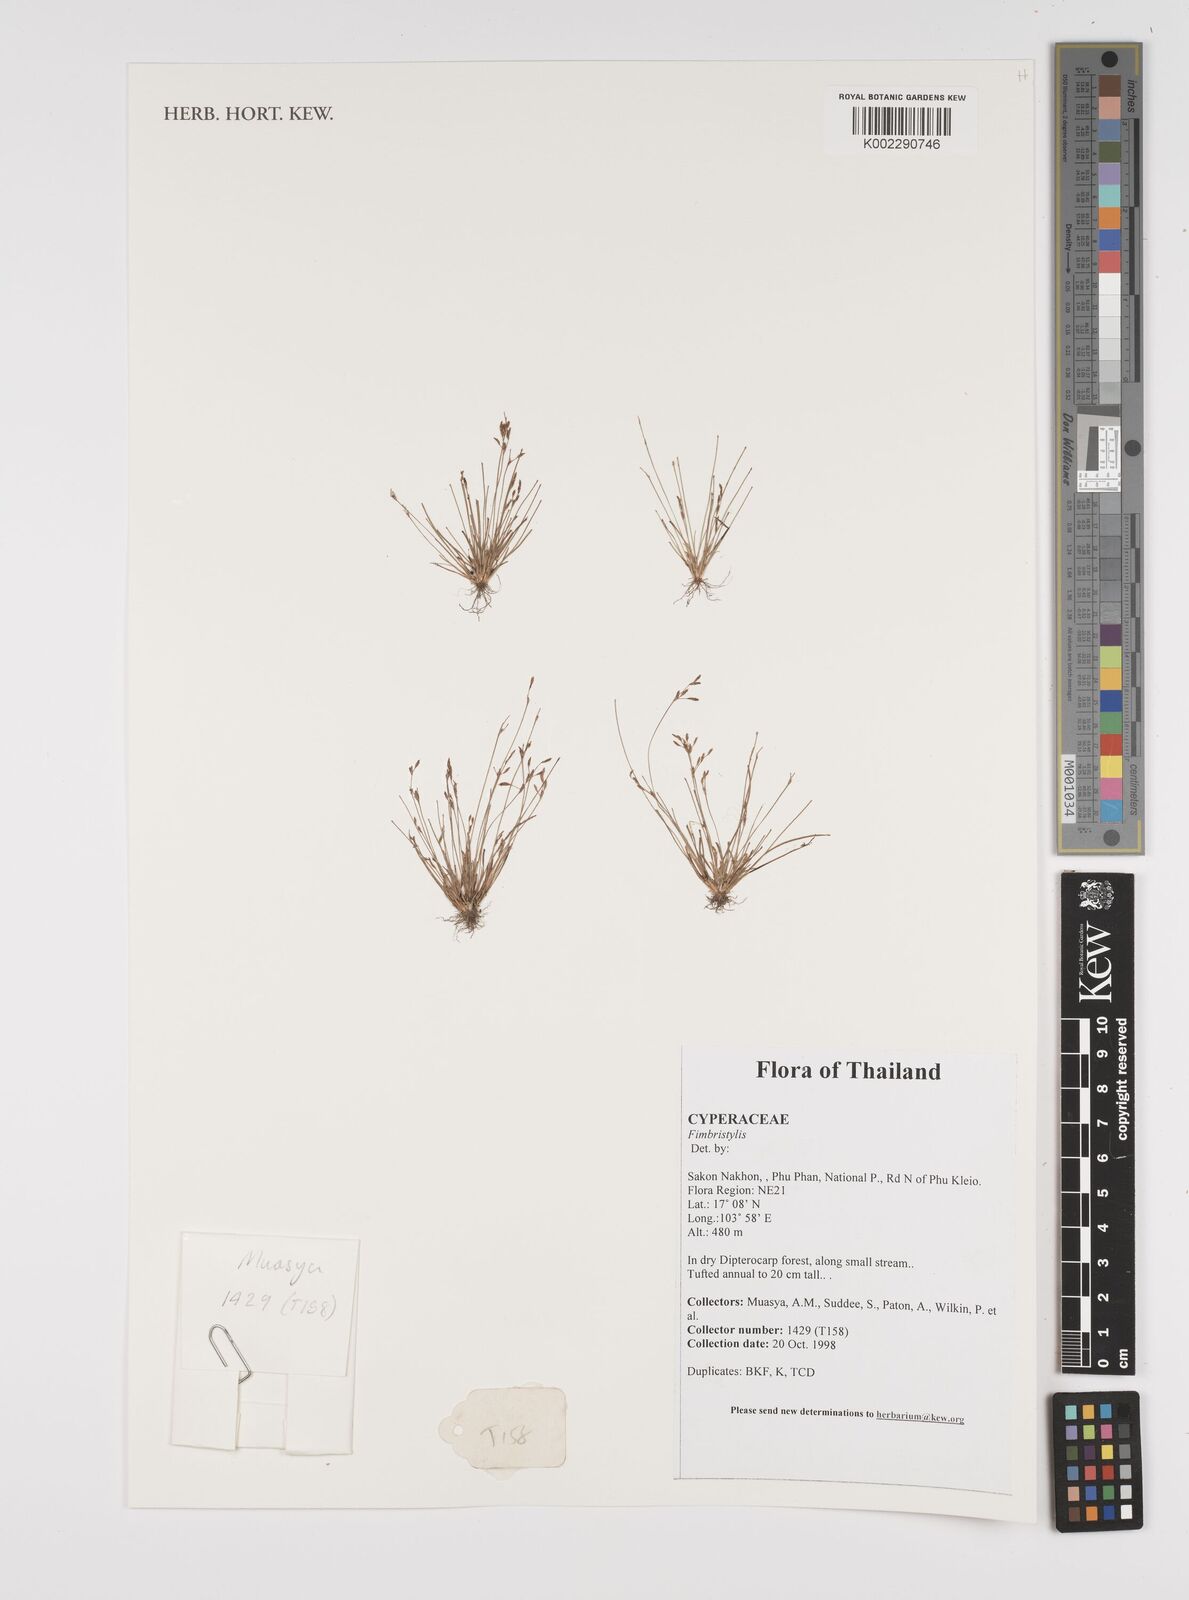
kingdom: Plantae
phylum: Tracheophyta
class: Liliopsida
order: Poales
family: Cyperaceae
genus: Fimbristylis
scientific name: Fimbristylis
